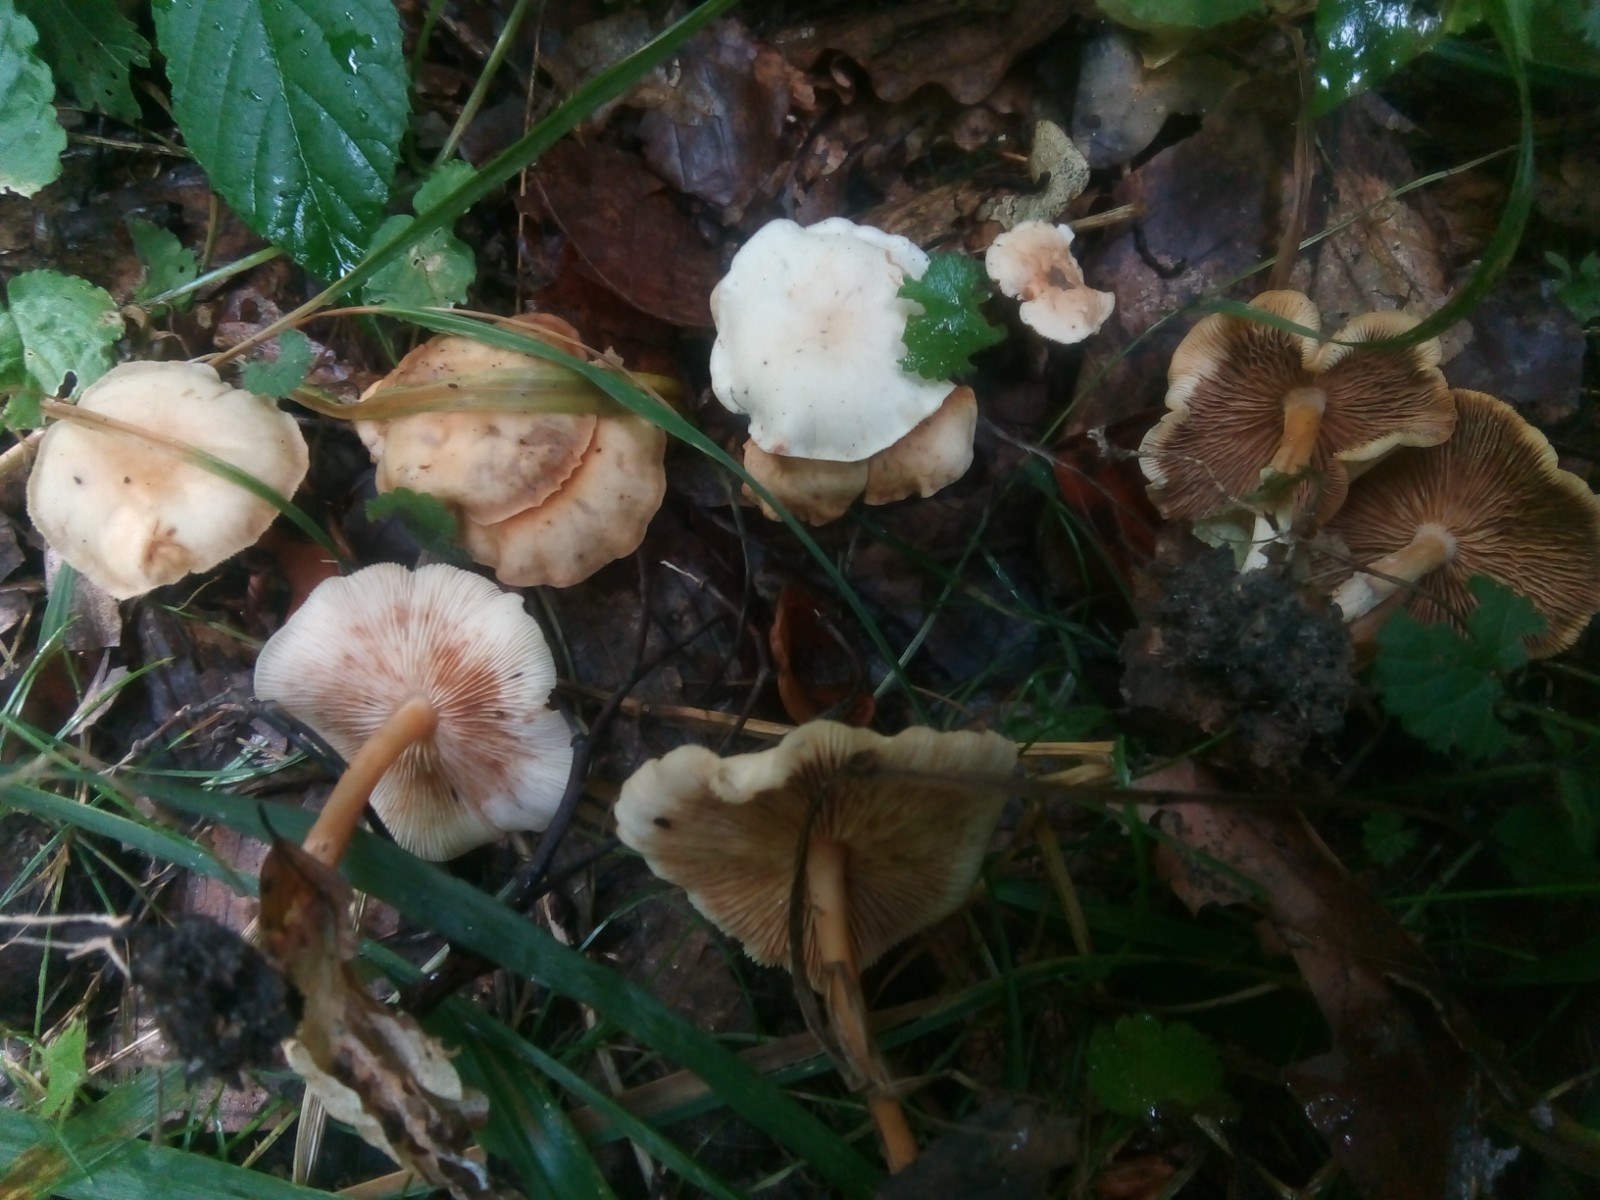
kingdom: Fungi
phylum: Basidiomycota
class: Agaricomycetes
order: Agaricales
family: Omphalotaceae
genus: Gymnopus
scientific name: Gymnopus dryophilus
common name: løv-fladhat
